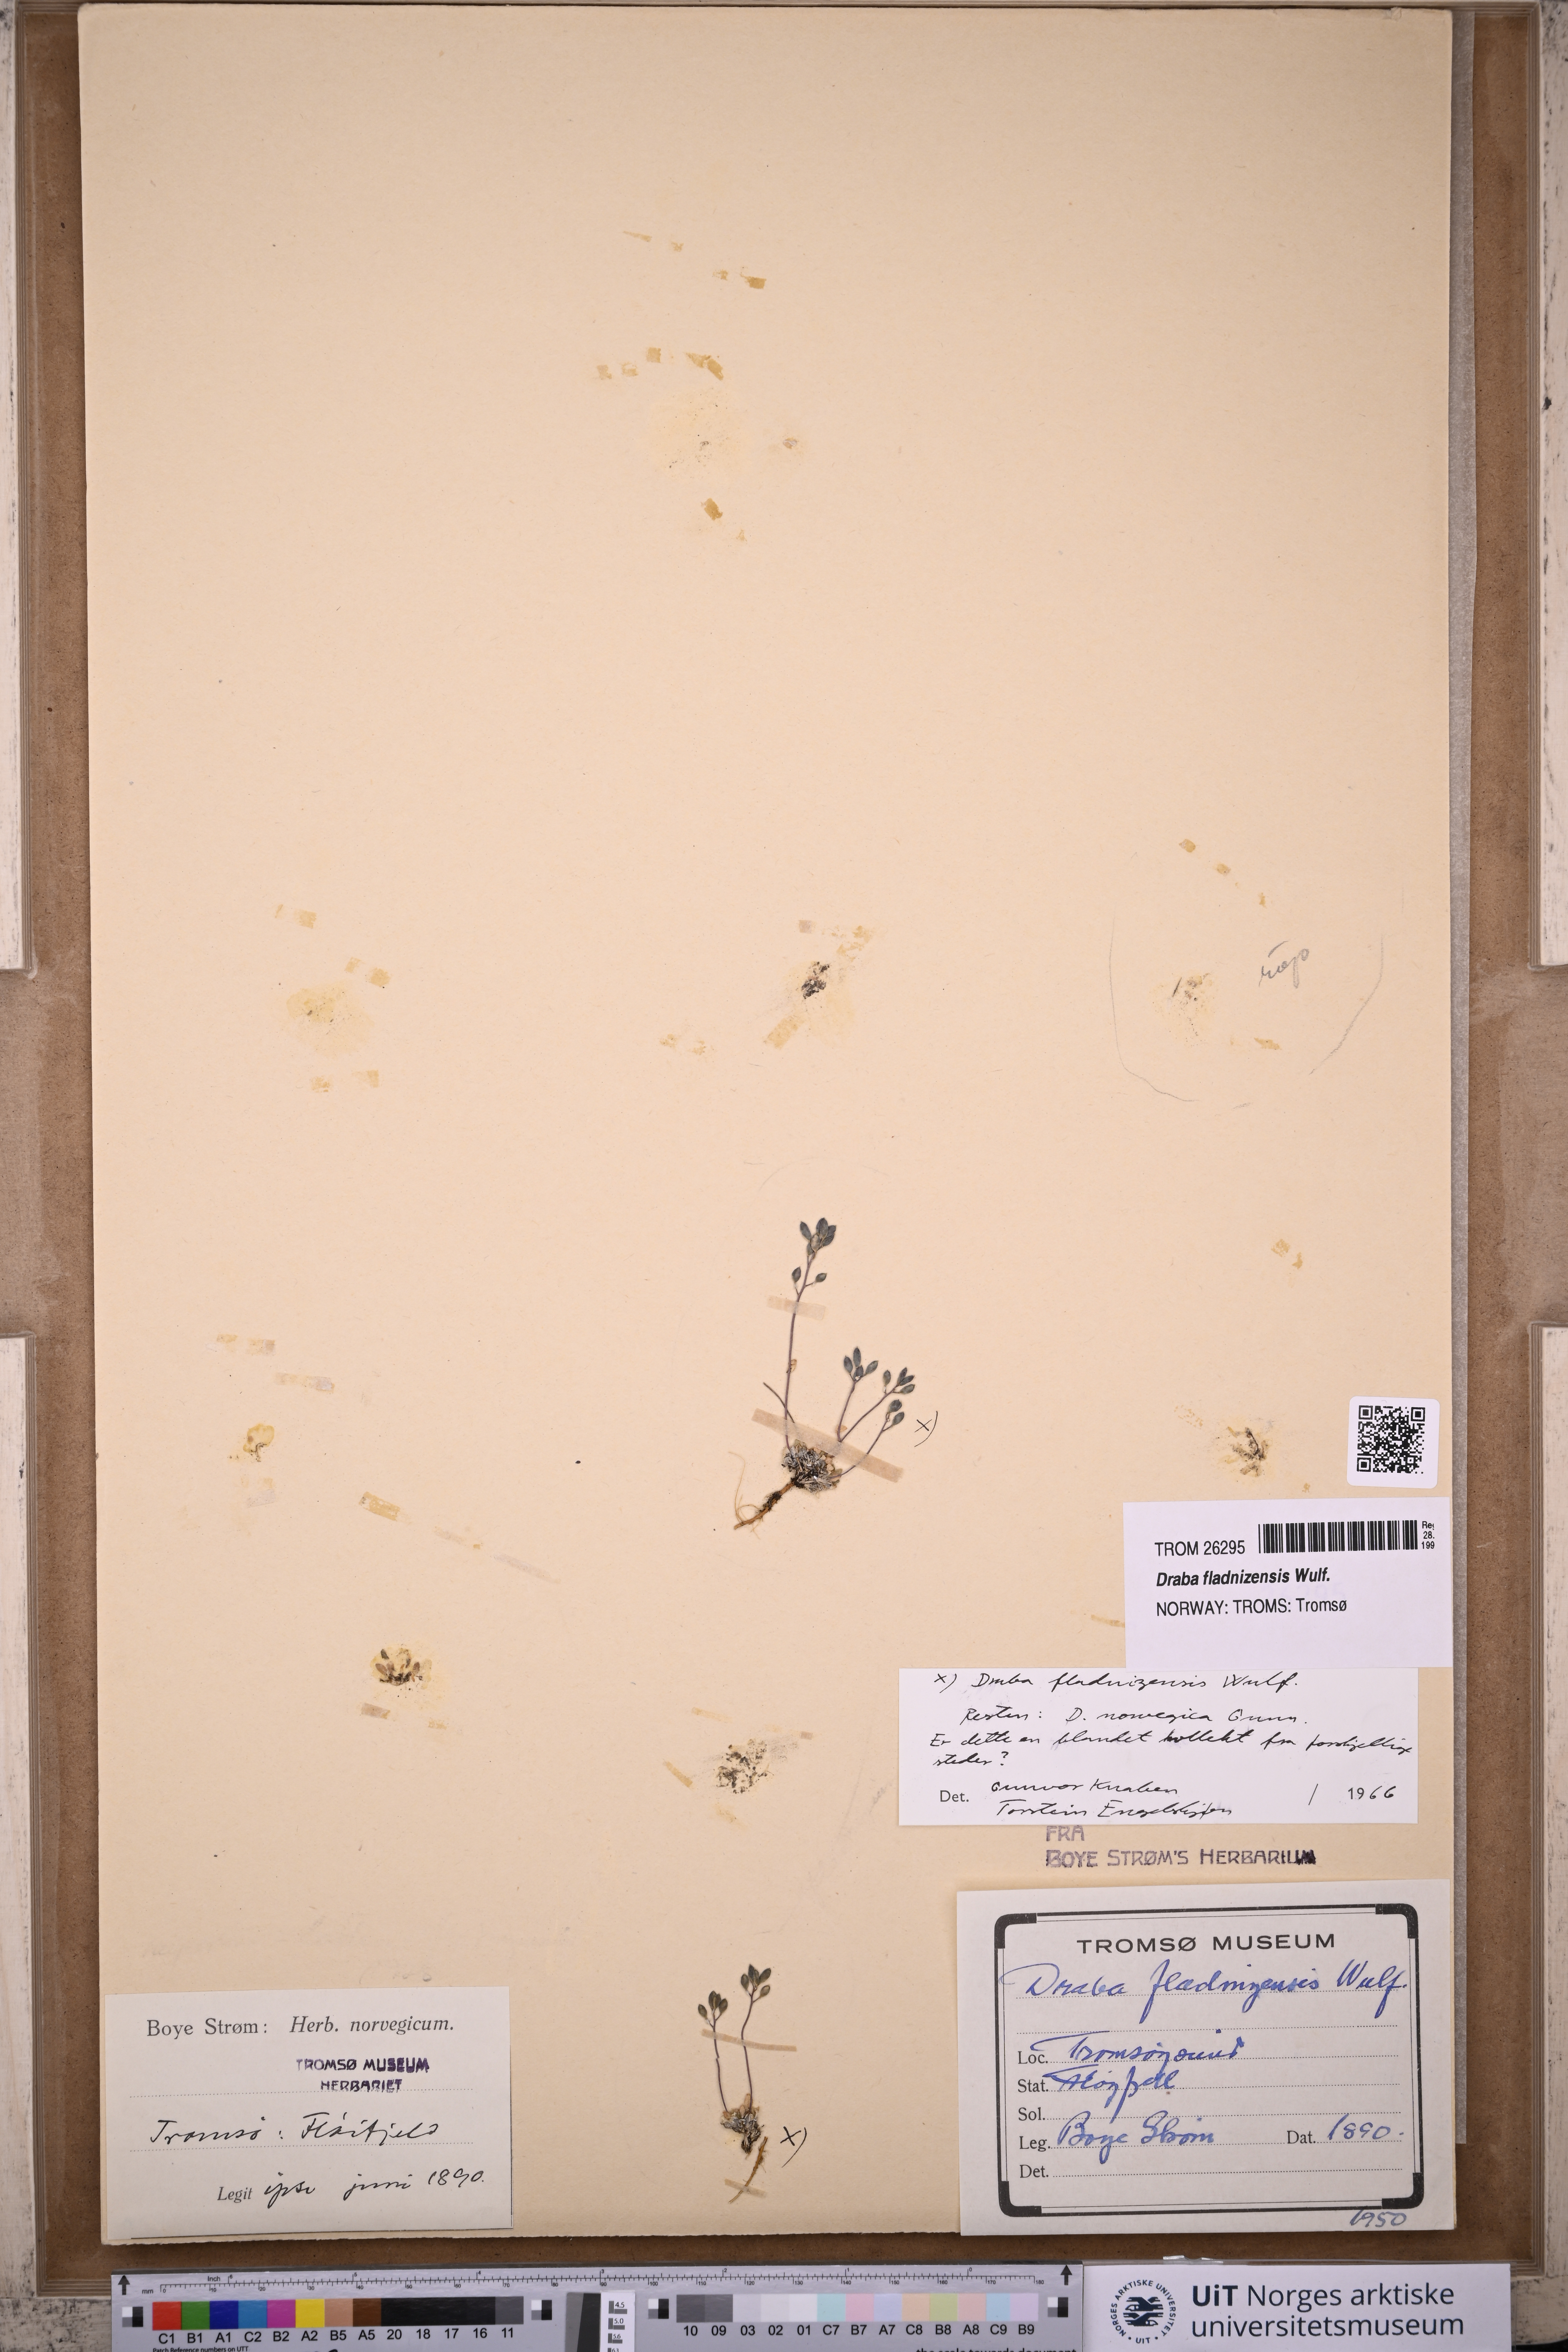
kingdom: Plantae
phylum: Tracheophyta
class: Magnoliopsida
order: Brassicales
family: Brassicaceae
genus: Draba
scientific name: Draba fladnizensis
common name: Austrian draba
